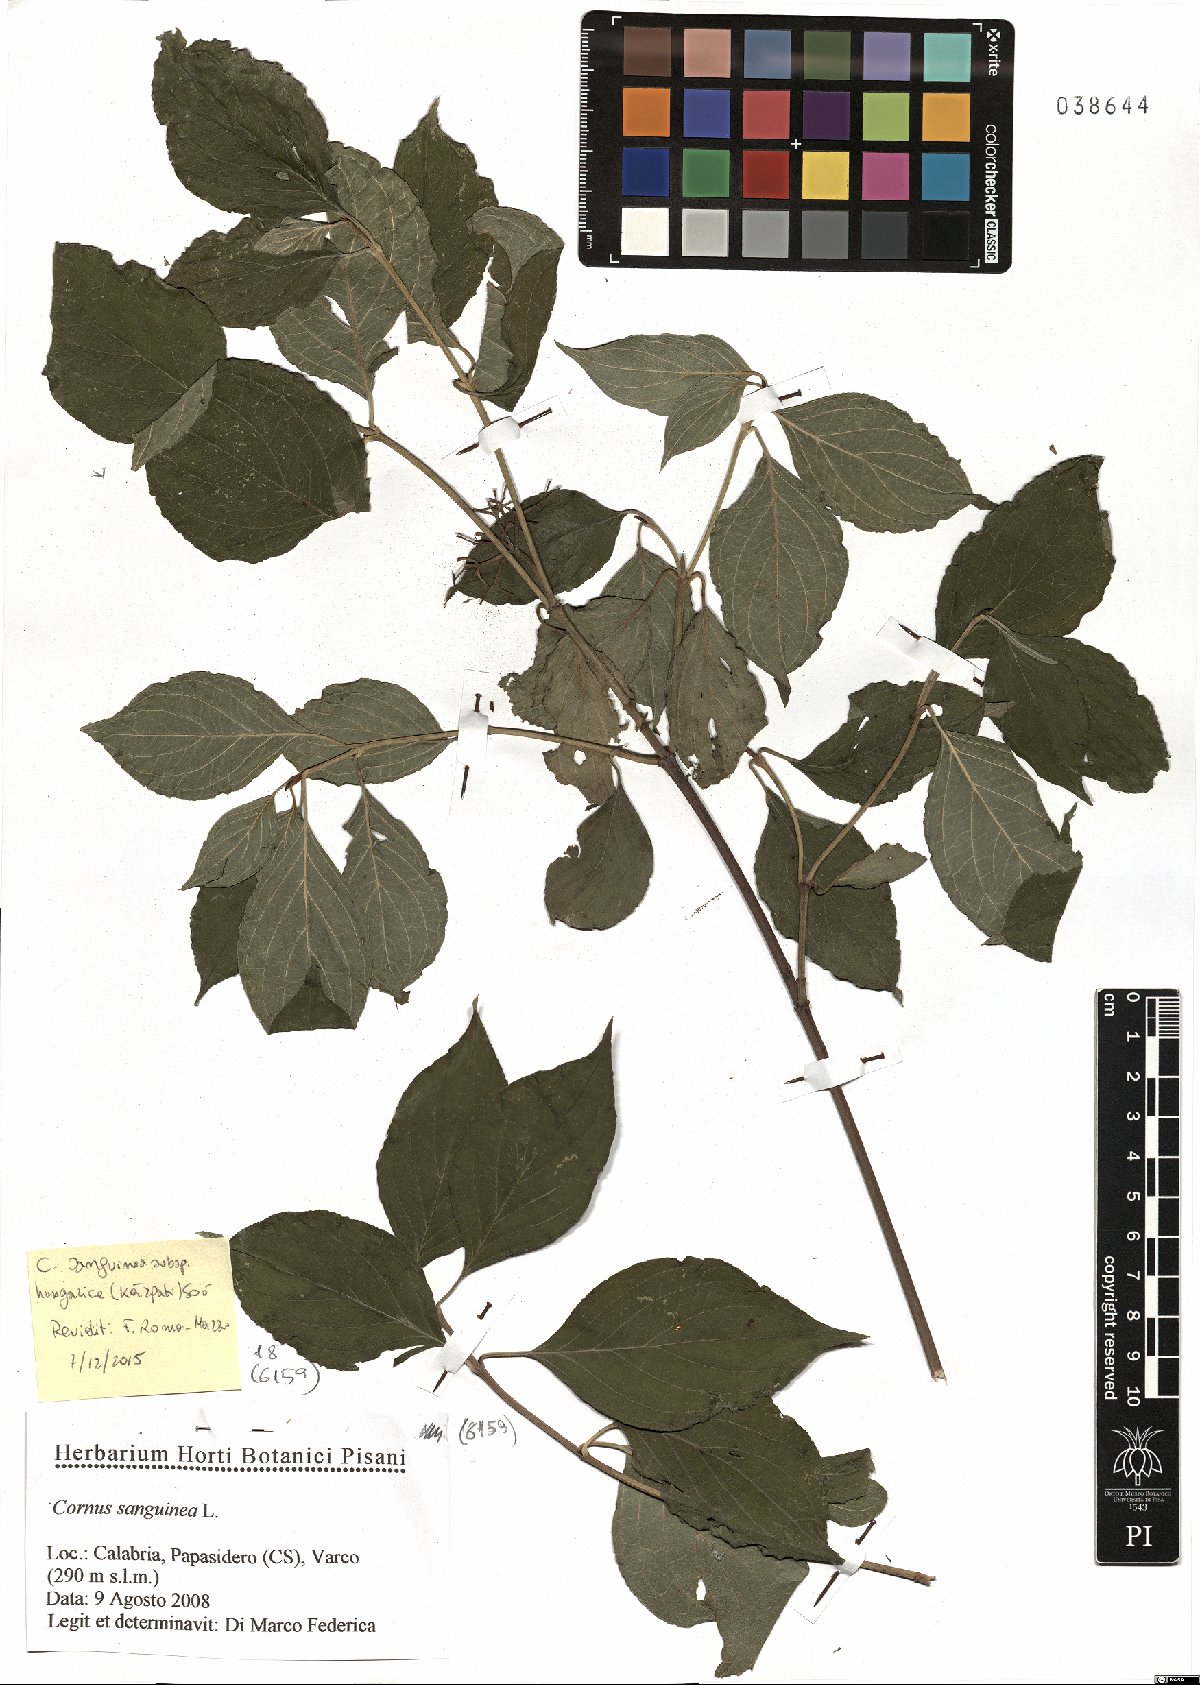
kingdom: Plantae
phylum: Tracheophyta
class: Magnoliopsida
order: Cornales
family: Cornaceae
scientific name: Cornaceae
